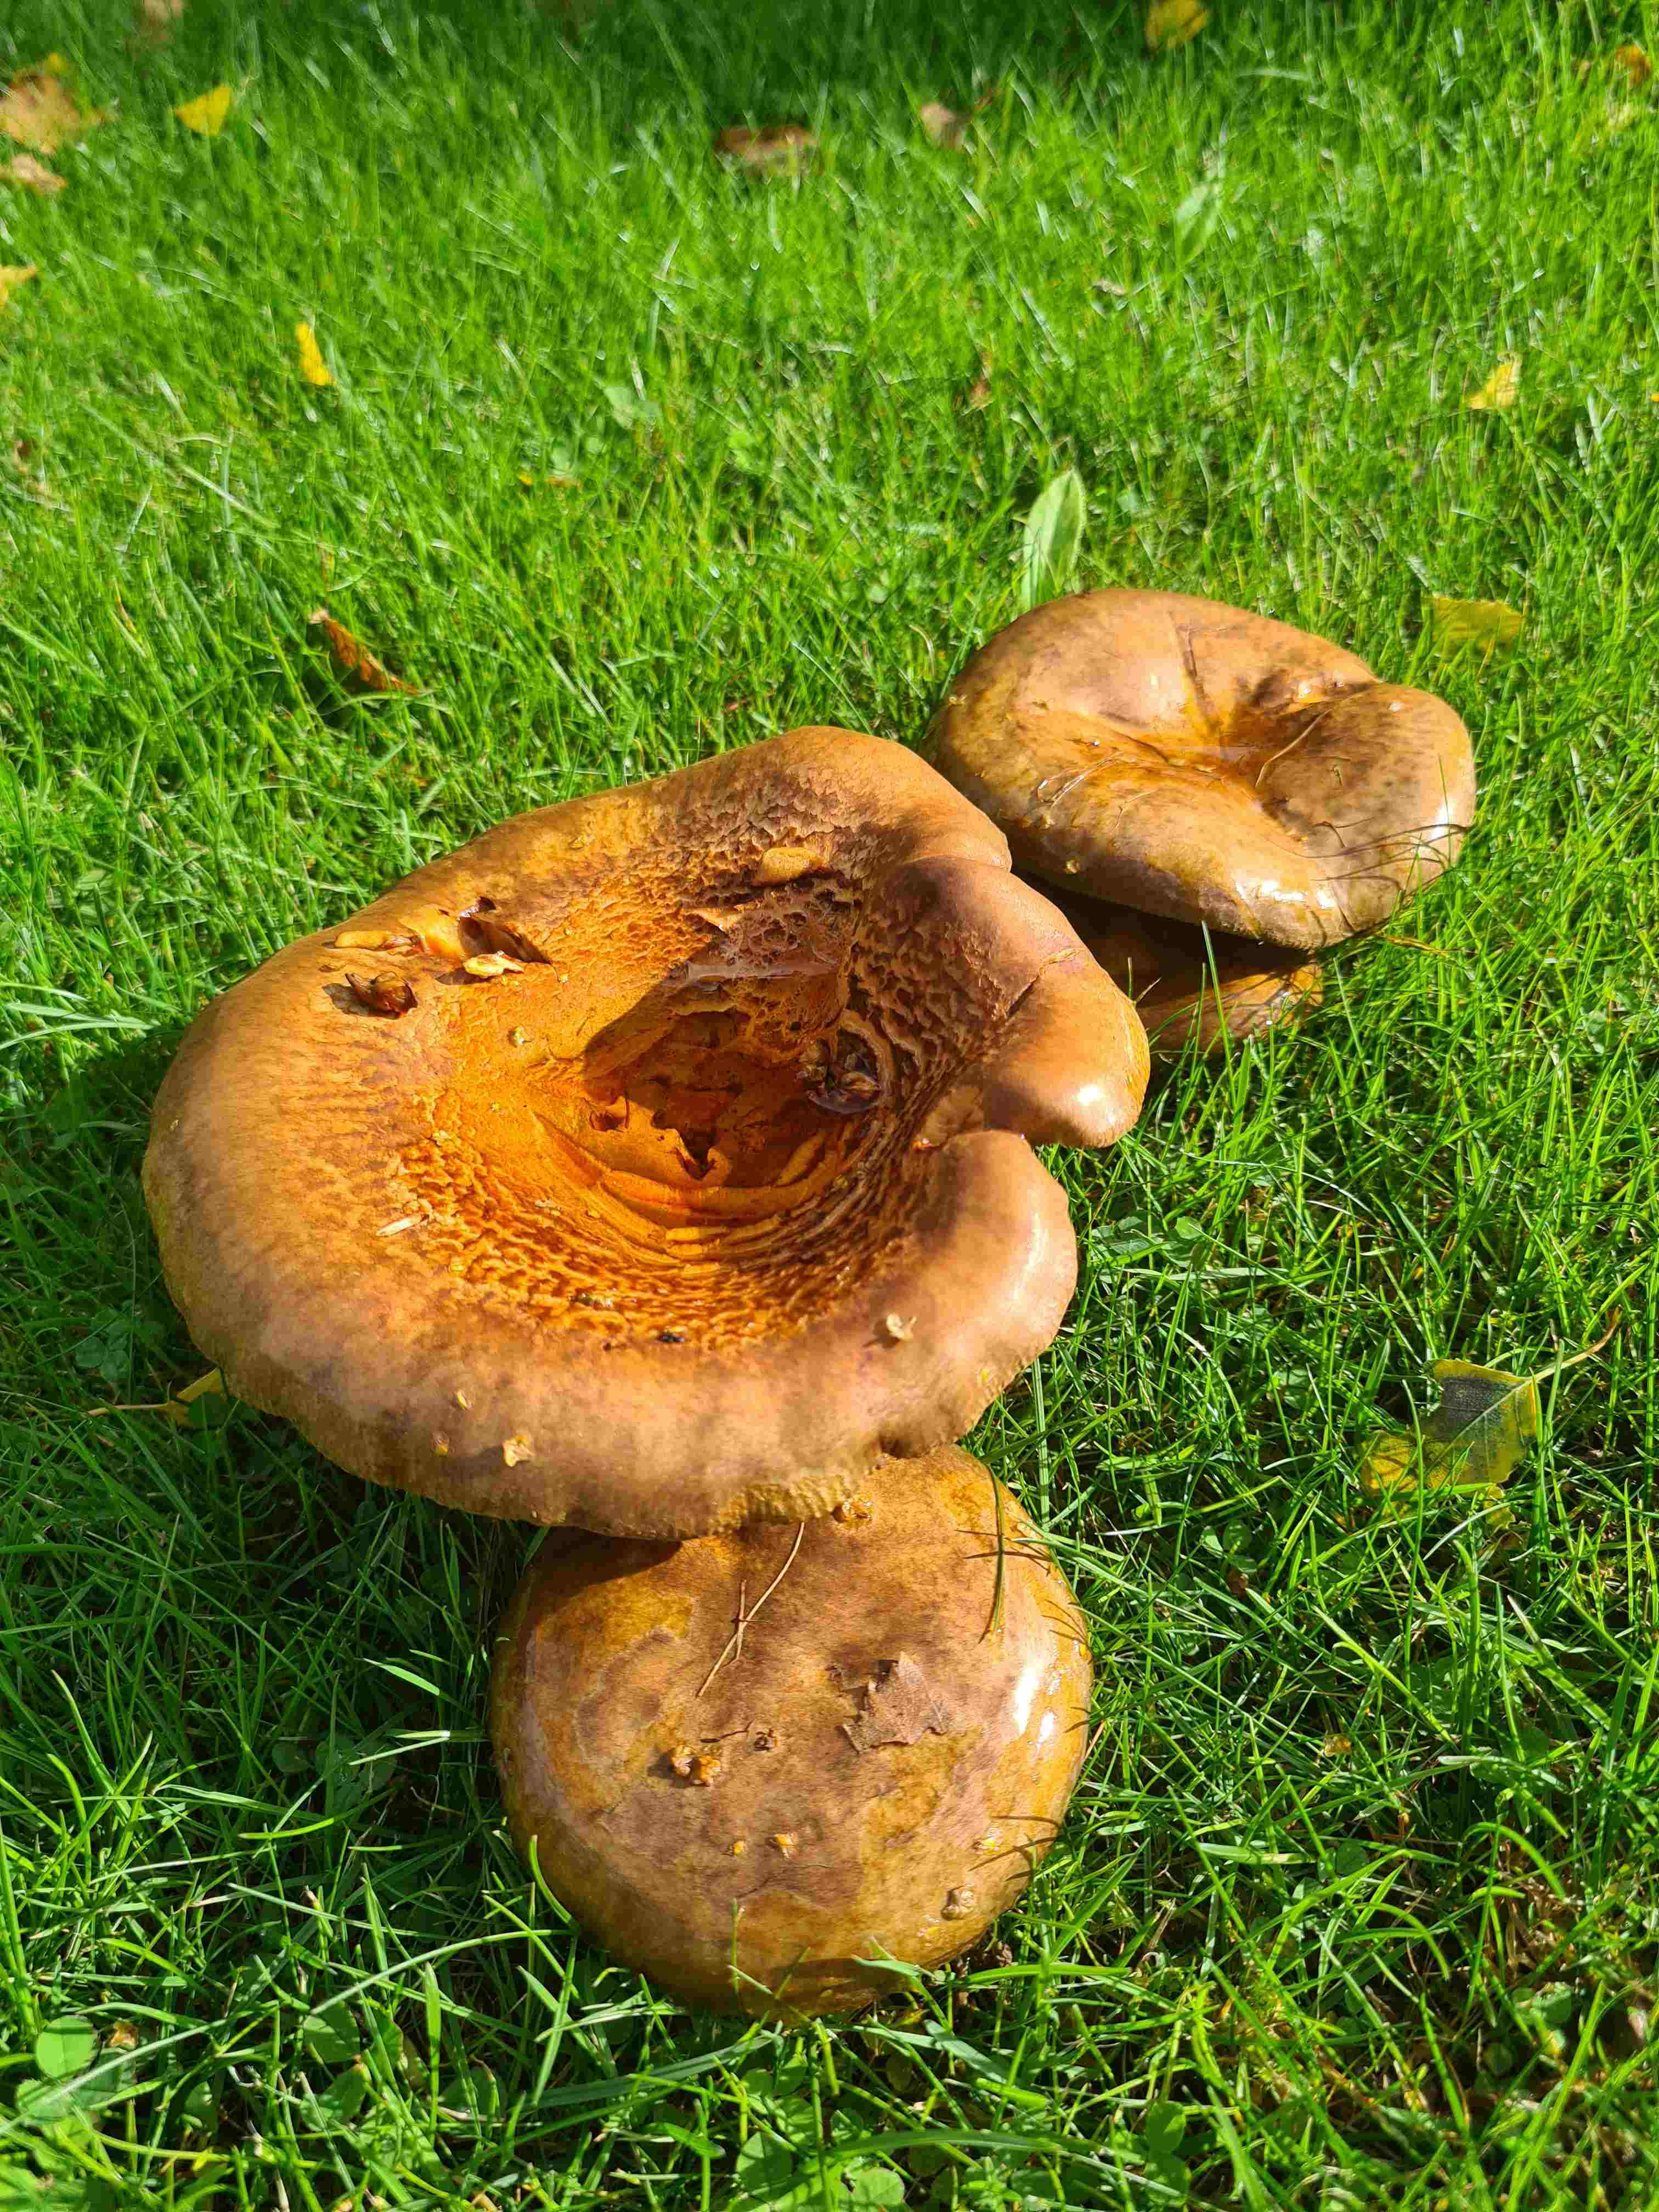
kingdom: Fungi
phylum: Basidiomycota
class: Agaricomycetes
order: Boletales
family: Paxillaceae
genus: Paxillus
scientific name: Paxillus involutus
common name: almindelig netbladhat
